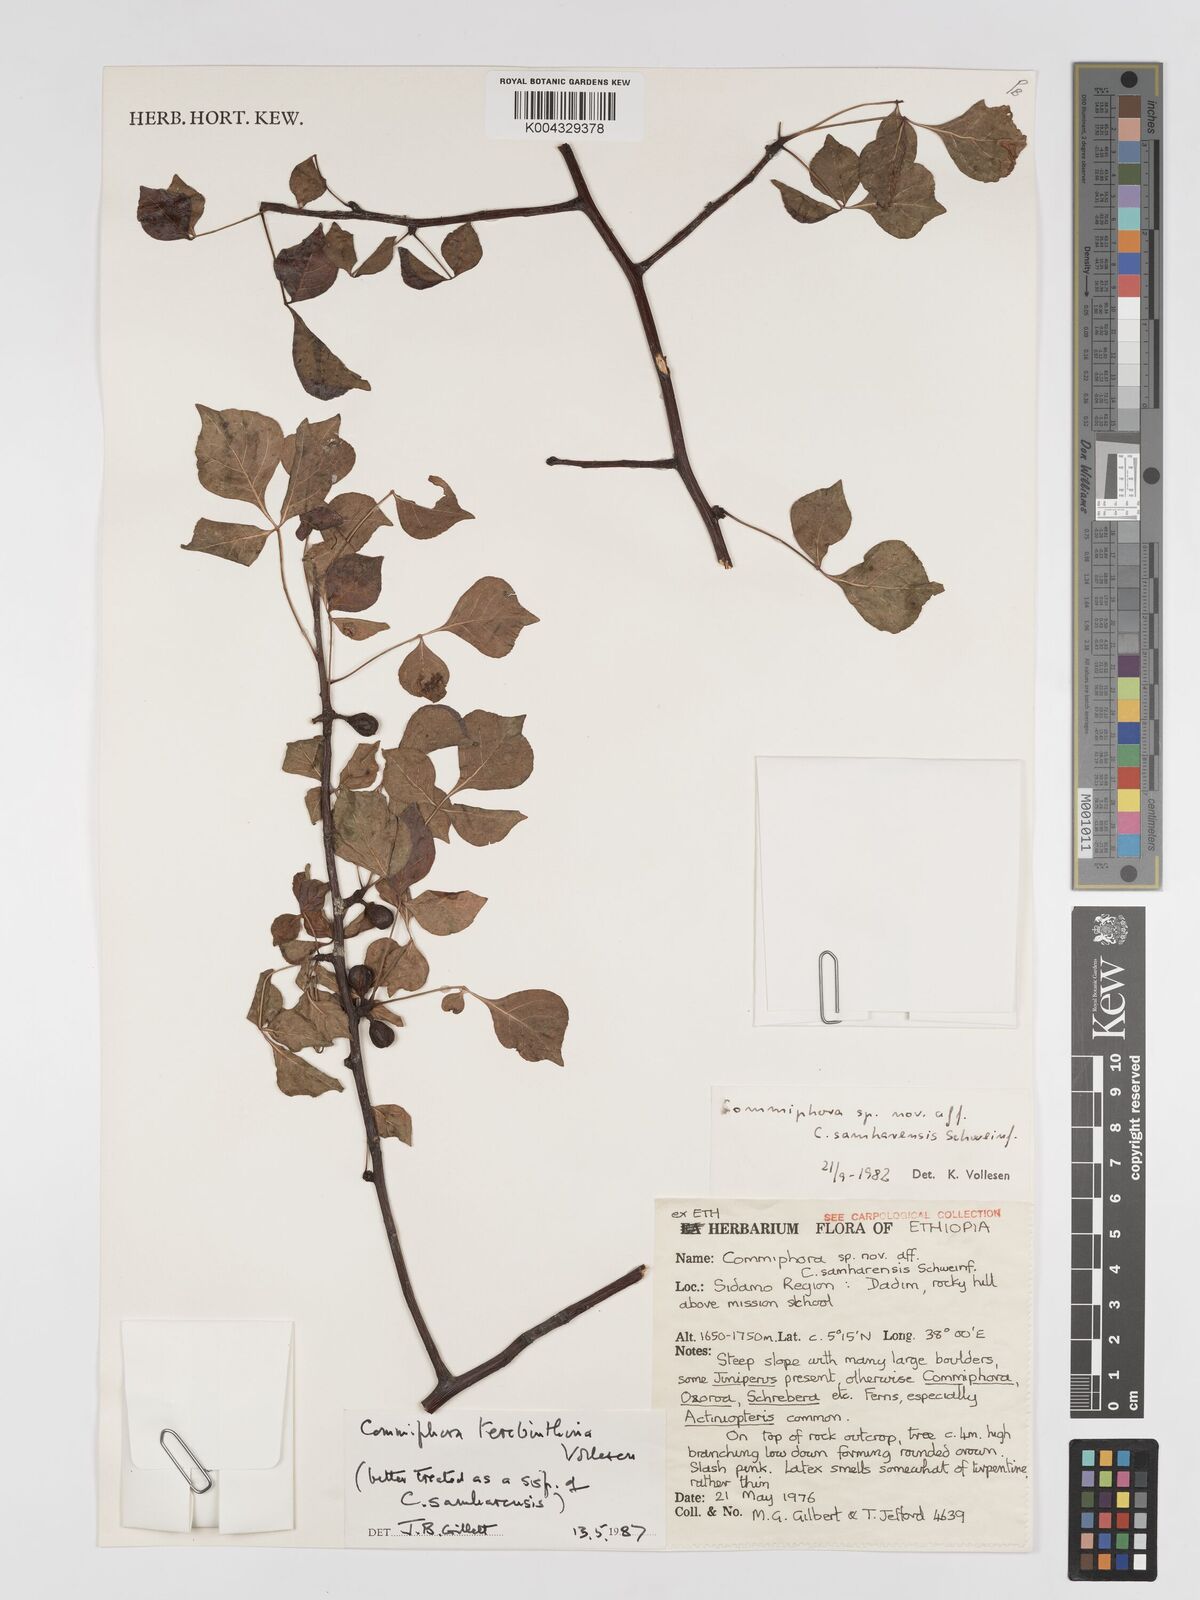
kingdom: Plantae
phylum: Tracheophyta
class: Magnoliopsida
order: Sapindales
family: Burseraceae
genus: Commiphora
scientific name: Commiphora samharensis
